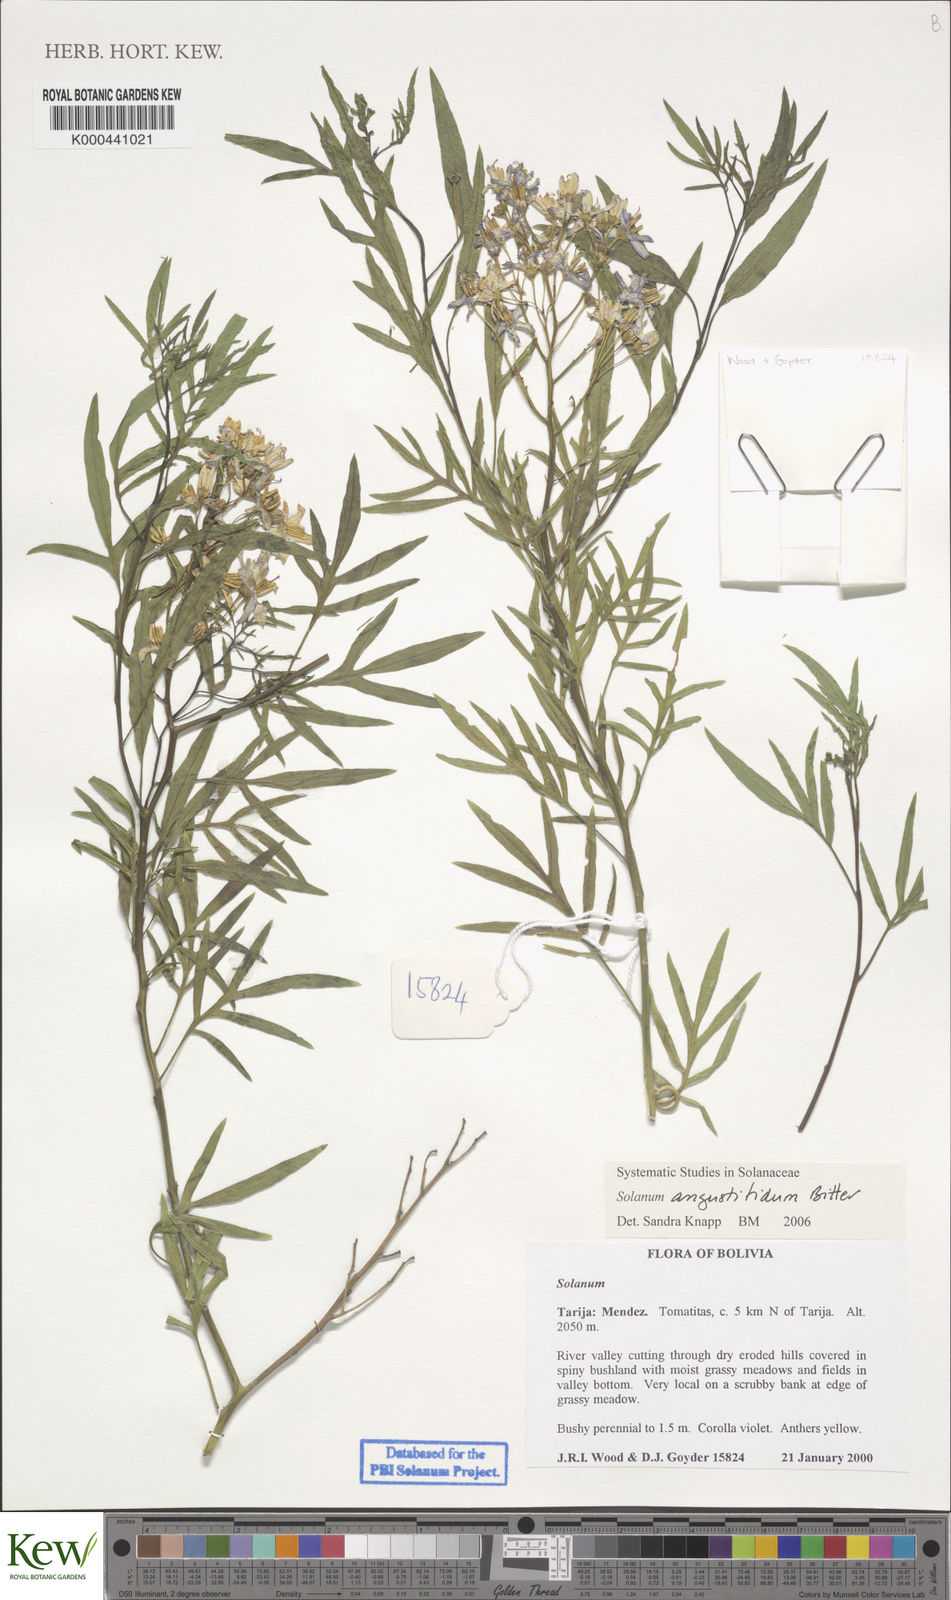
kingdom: Plantae
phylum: Tracheophyta
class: Magnoliopsida
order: Solanales
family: Solanaceae
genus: Solanum
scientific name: Solanum angustifidum
